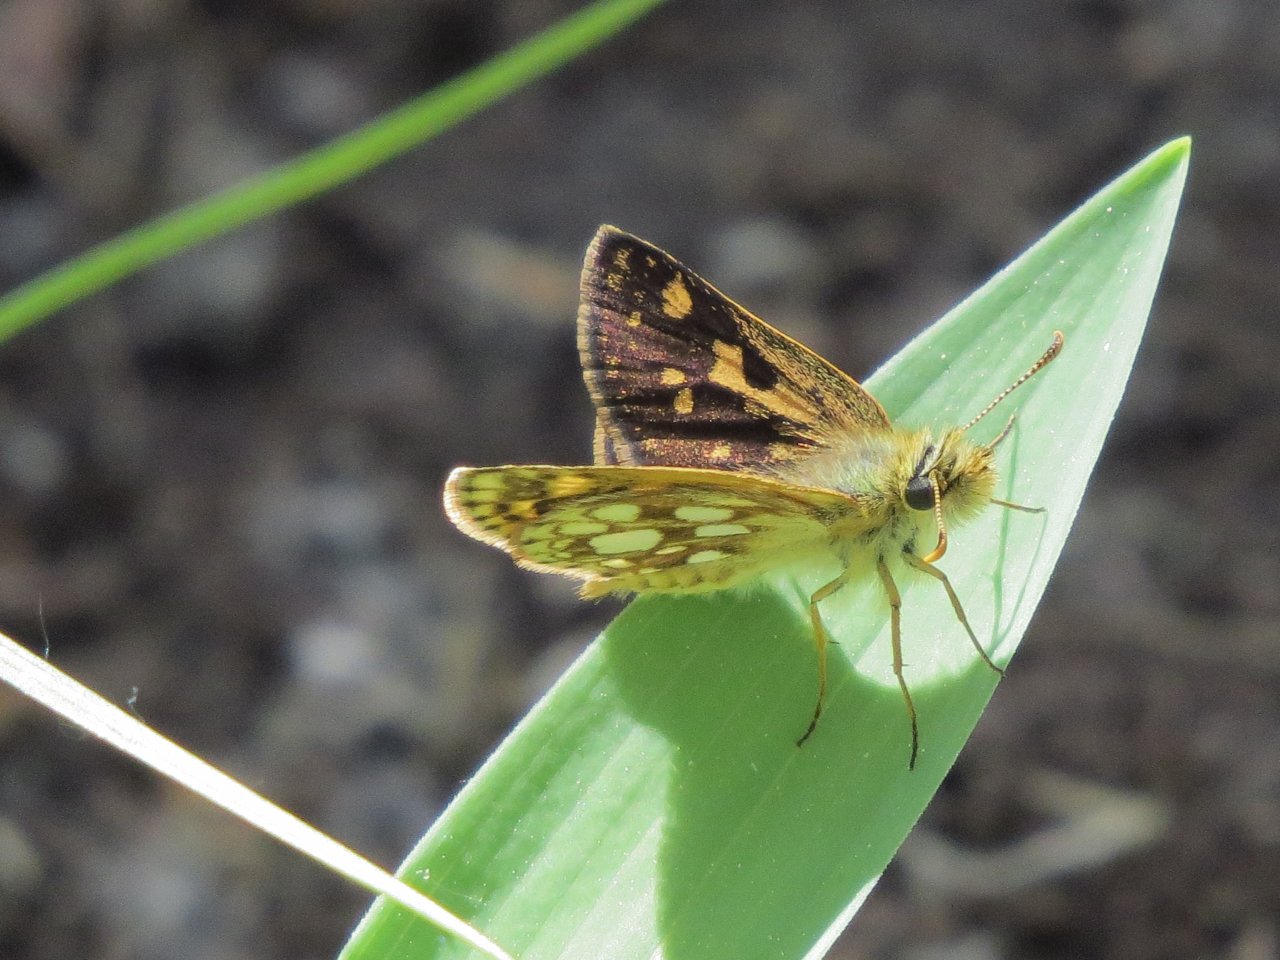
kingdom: Animalia
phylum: Arthropoda
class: Insecta
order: Lepidoptera
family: Hesperiidae
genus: Carterocephalus
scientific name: Carterocephalus palaemon
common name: Chequered Skipper
